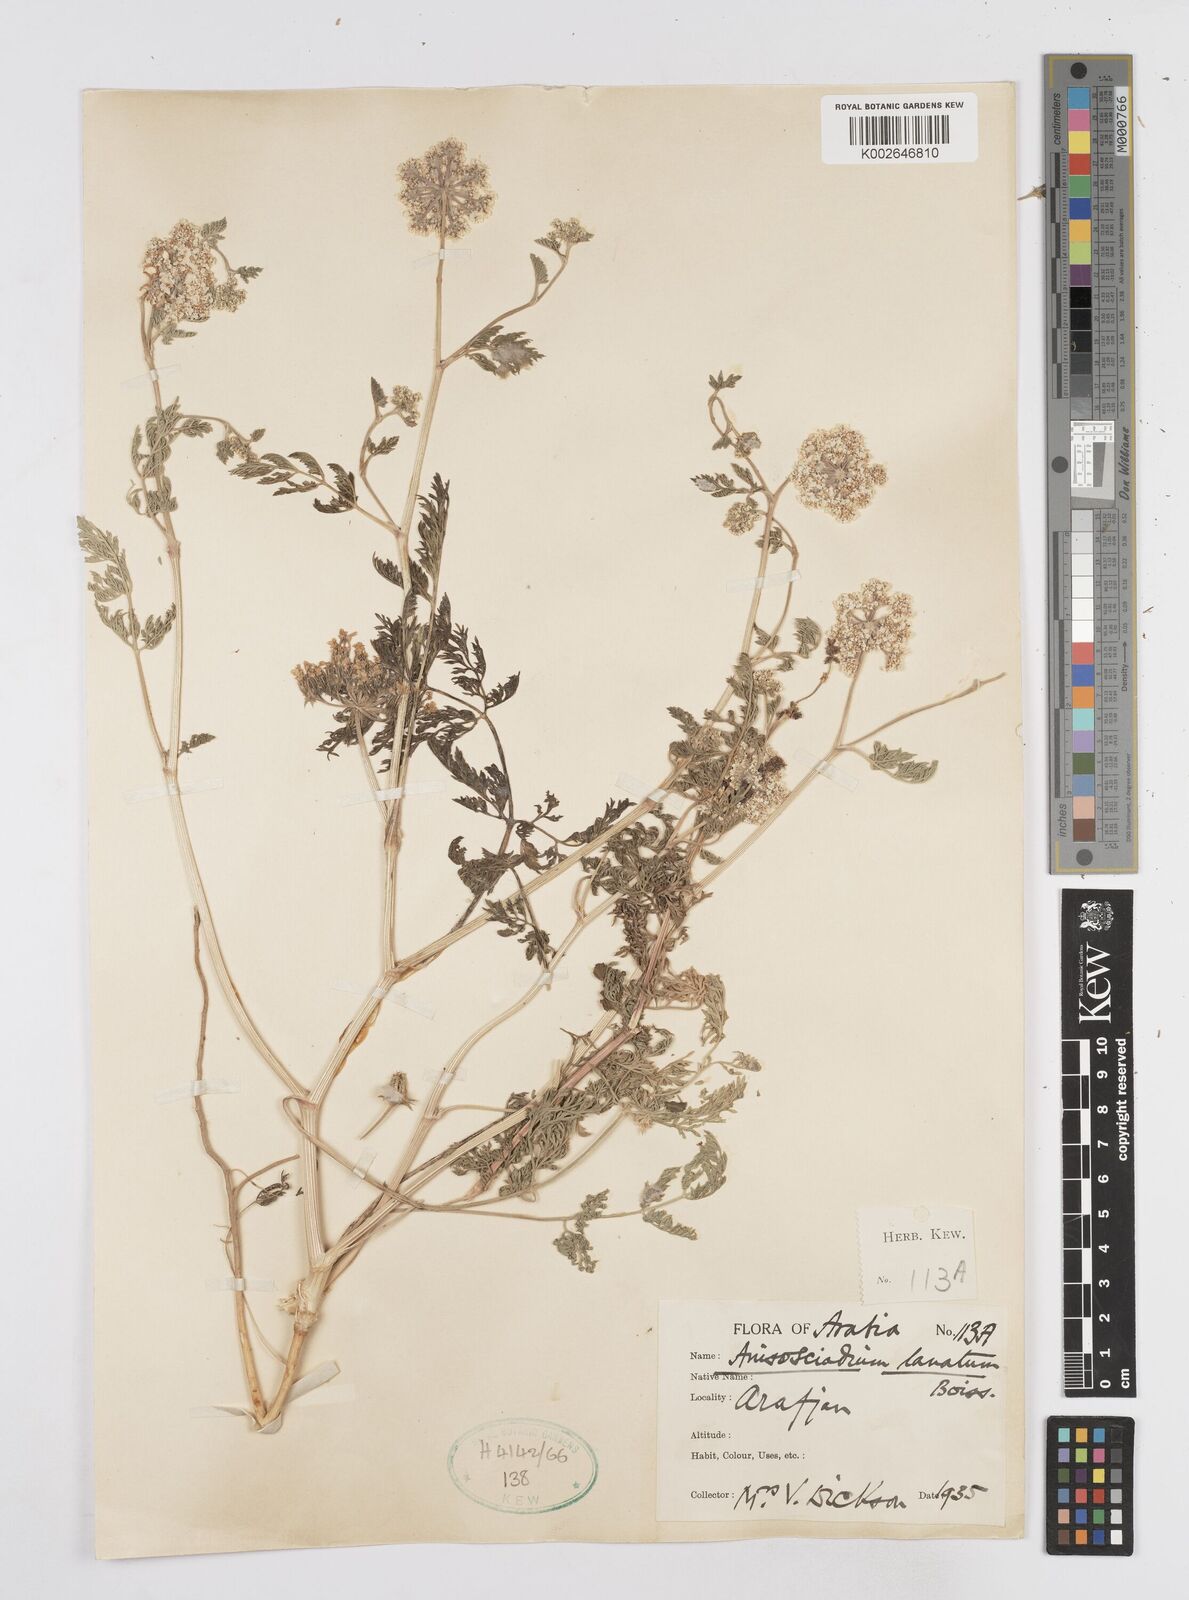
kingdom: Plantae
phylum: Tracheophyta
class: Magnoliopsida
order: Apiales
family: Apiaceae
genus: Anisosciadium
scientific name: Anisosciadium lanatum
